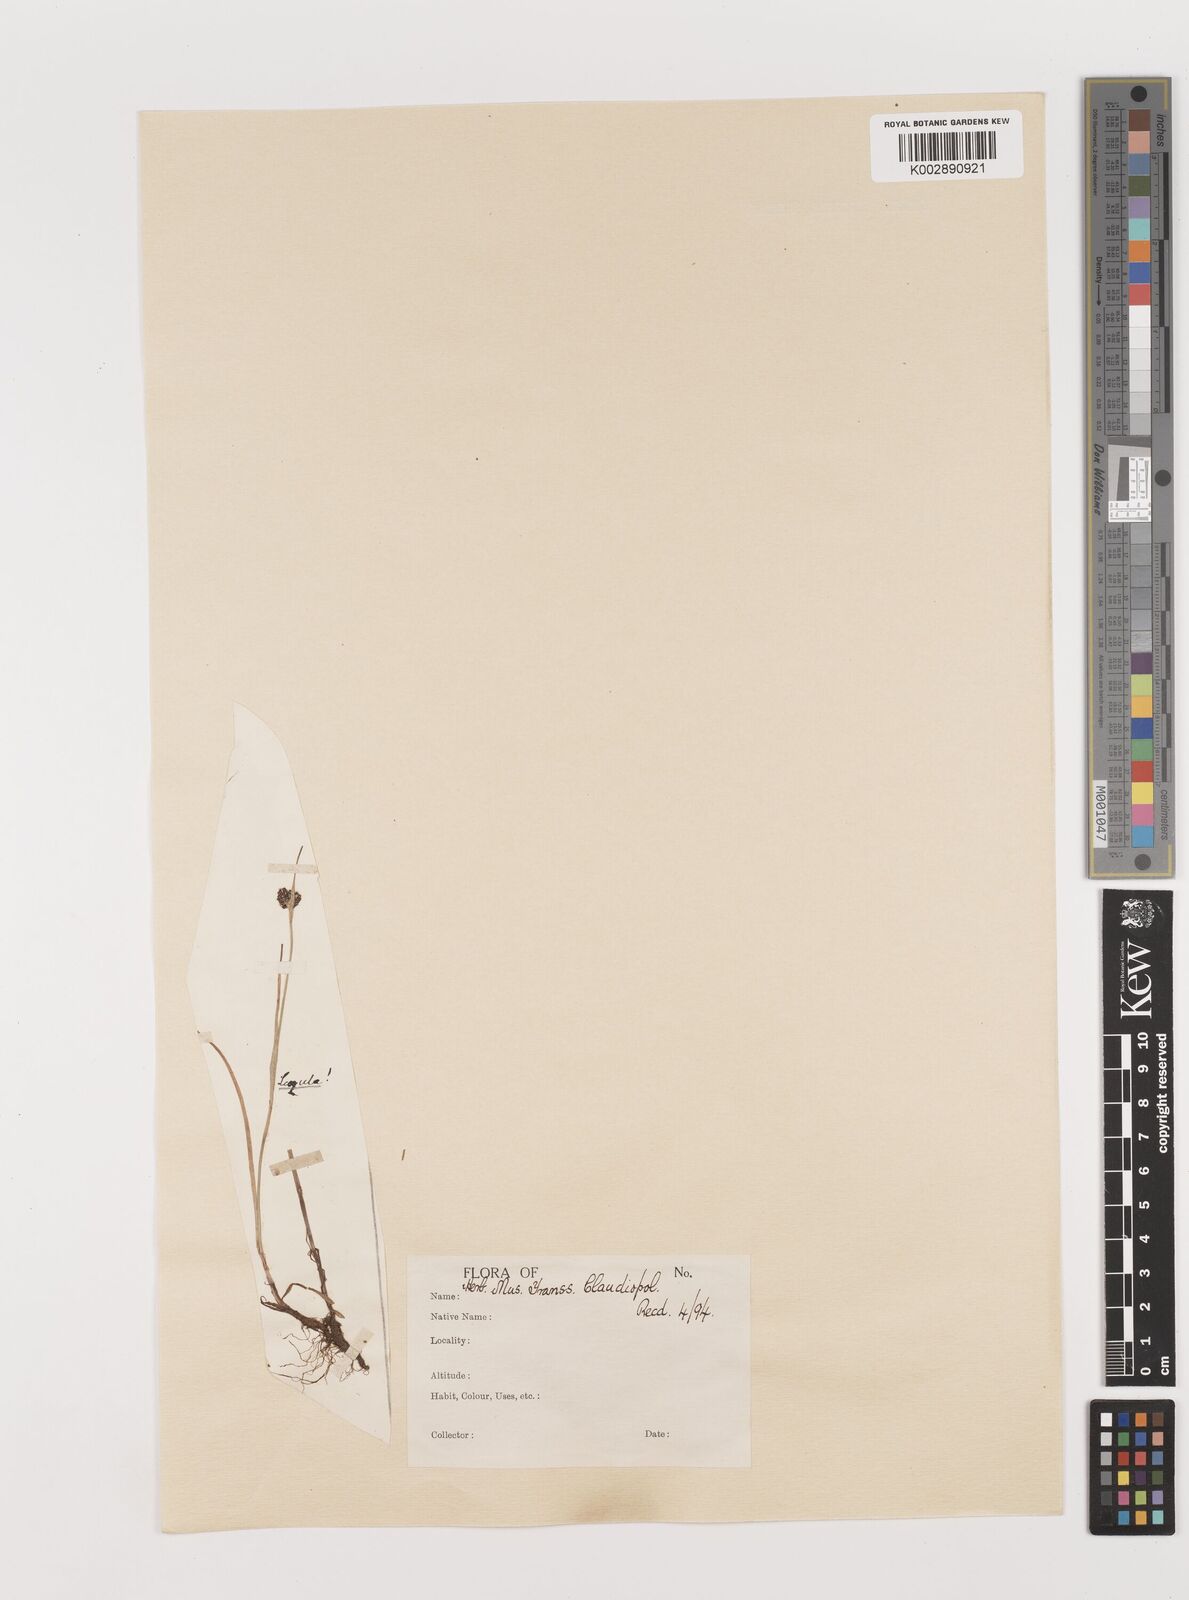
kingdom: Plantae
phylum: Tracheophyta
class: Liliopsida
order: Poales
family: Juncaceae
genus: Juncus
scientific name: Juncus
